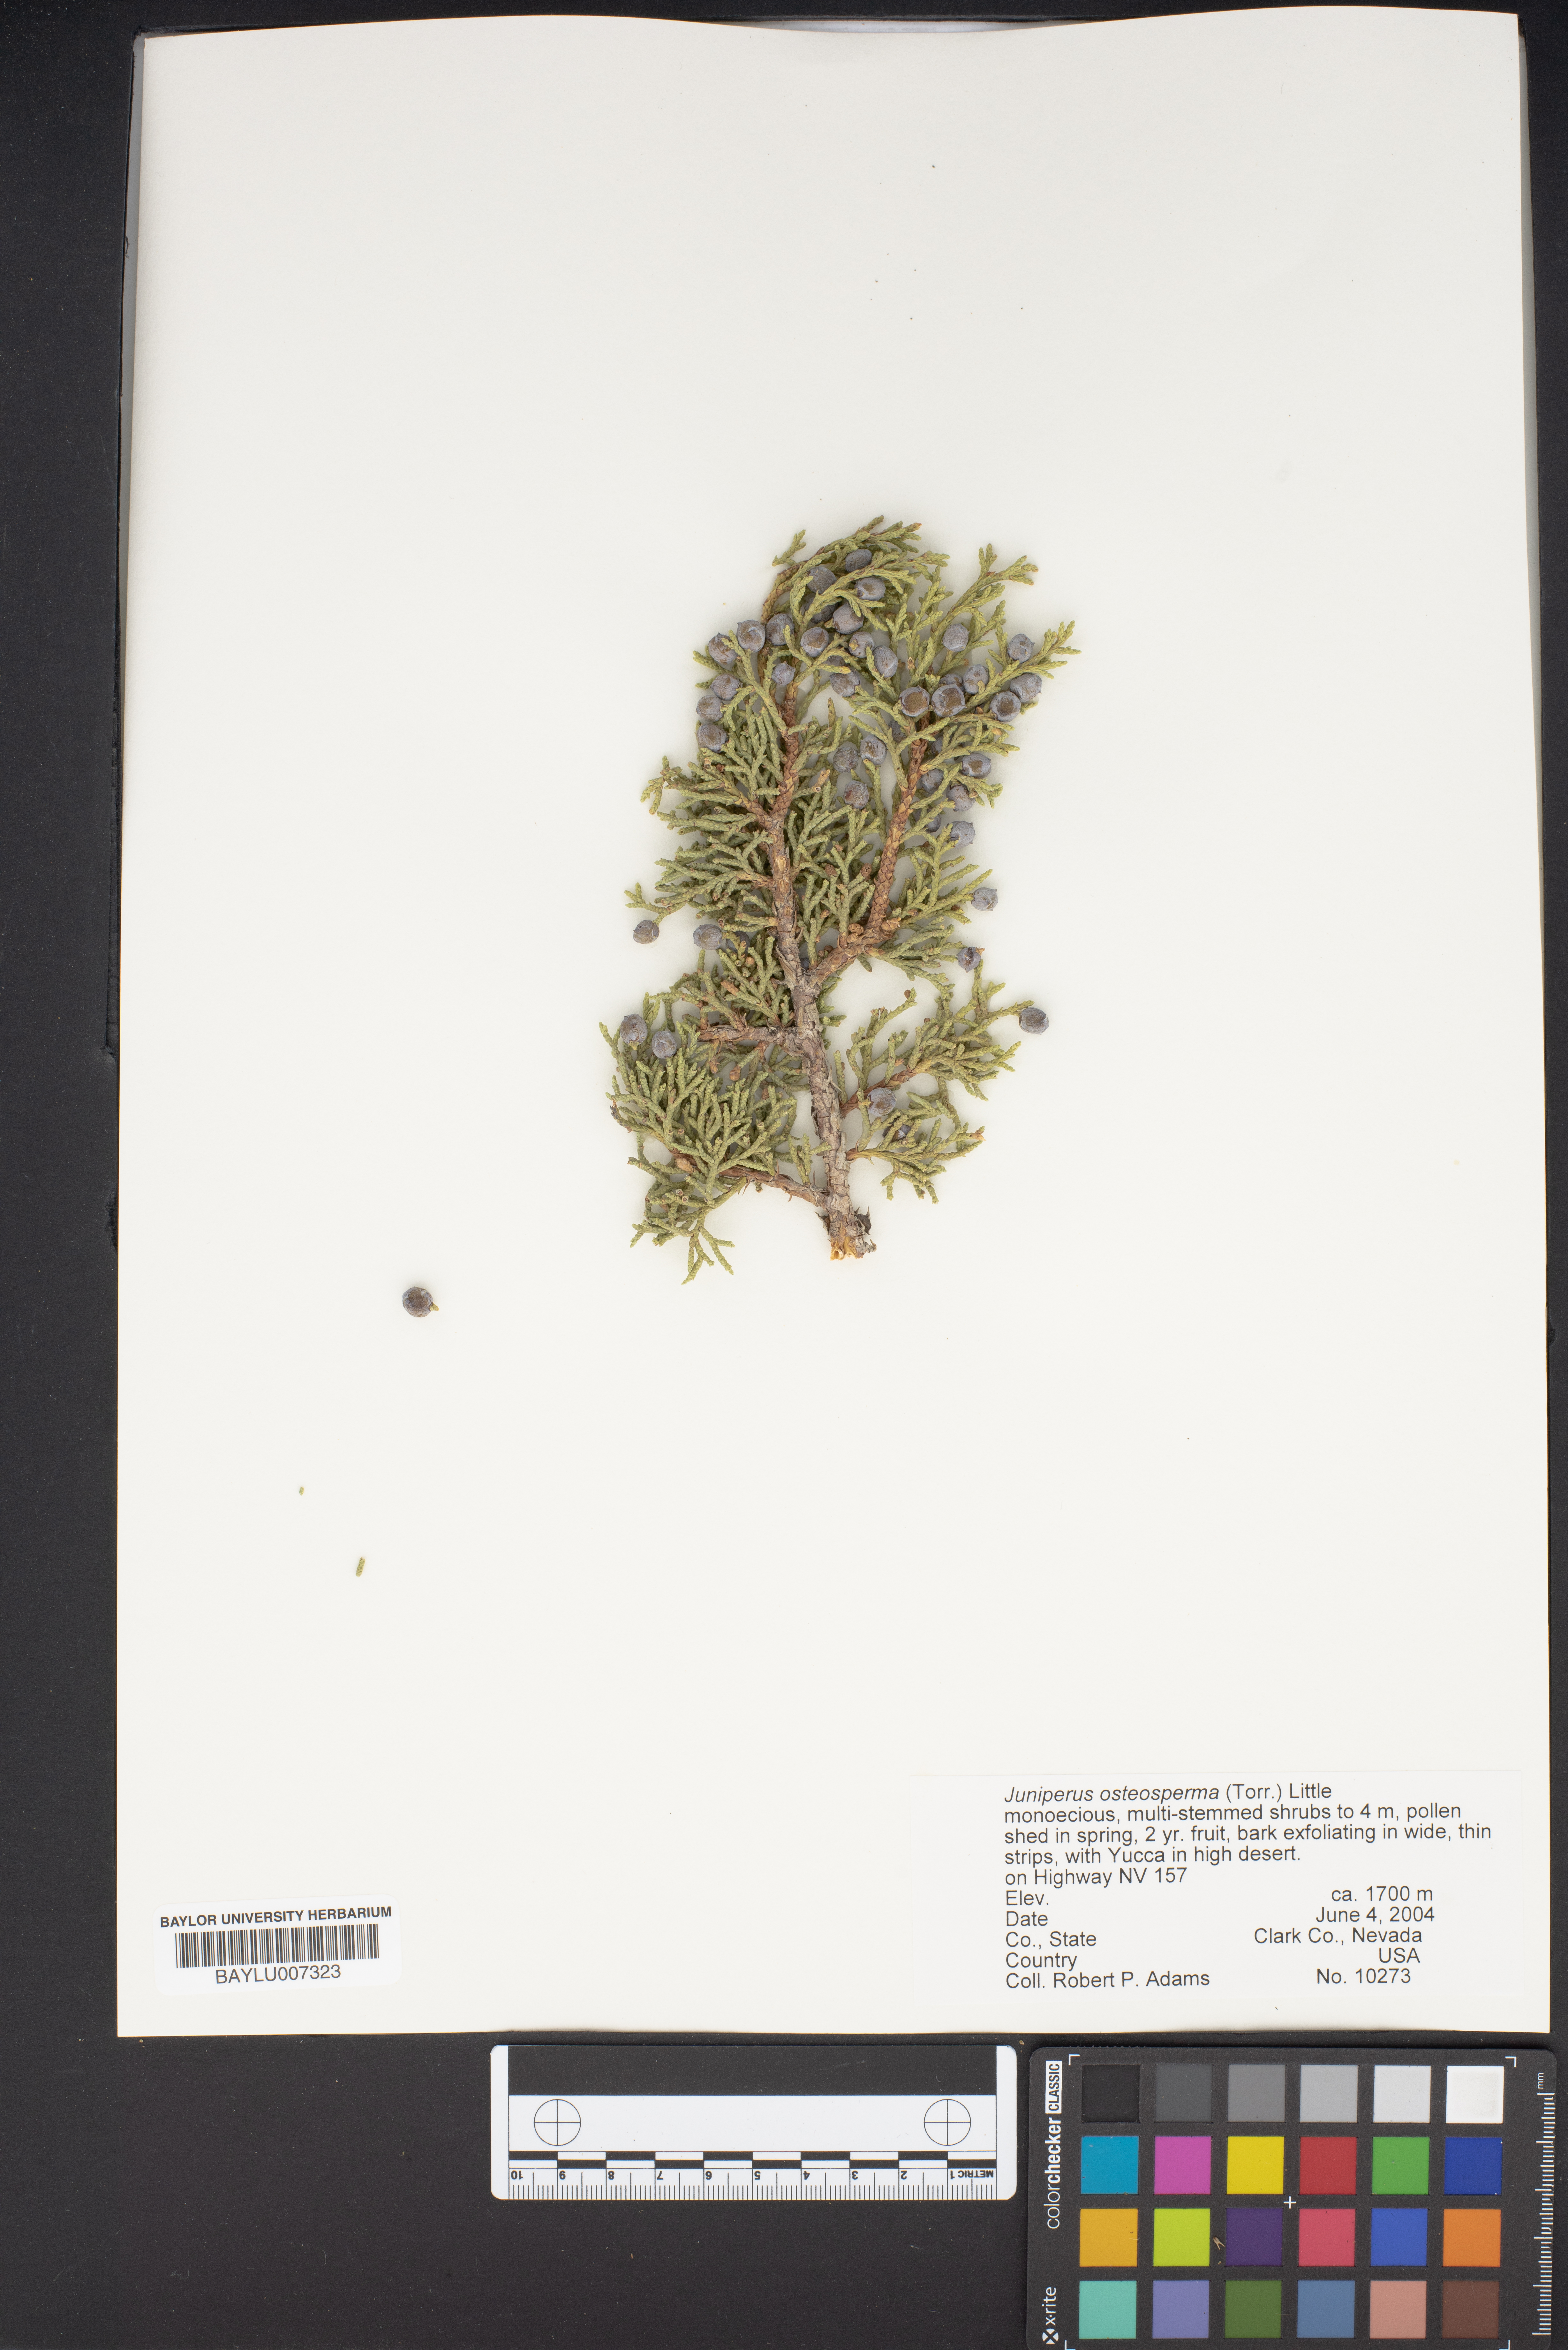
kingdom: Plantae
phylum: Tracheophyta
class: Pinopsida
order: Pinales
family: Cupressaceae
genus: Juniperus
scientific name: Juniperus osteosperma
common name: Utah juniper
